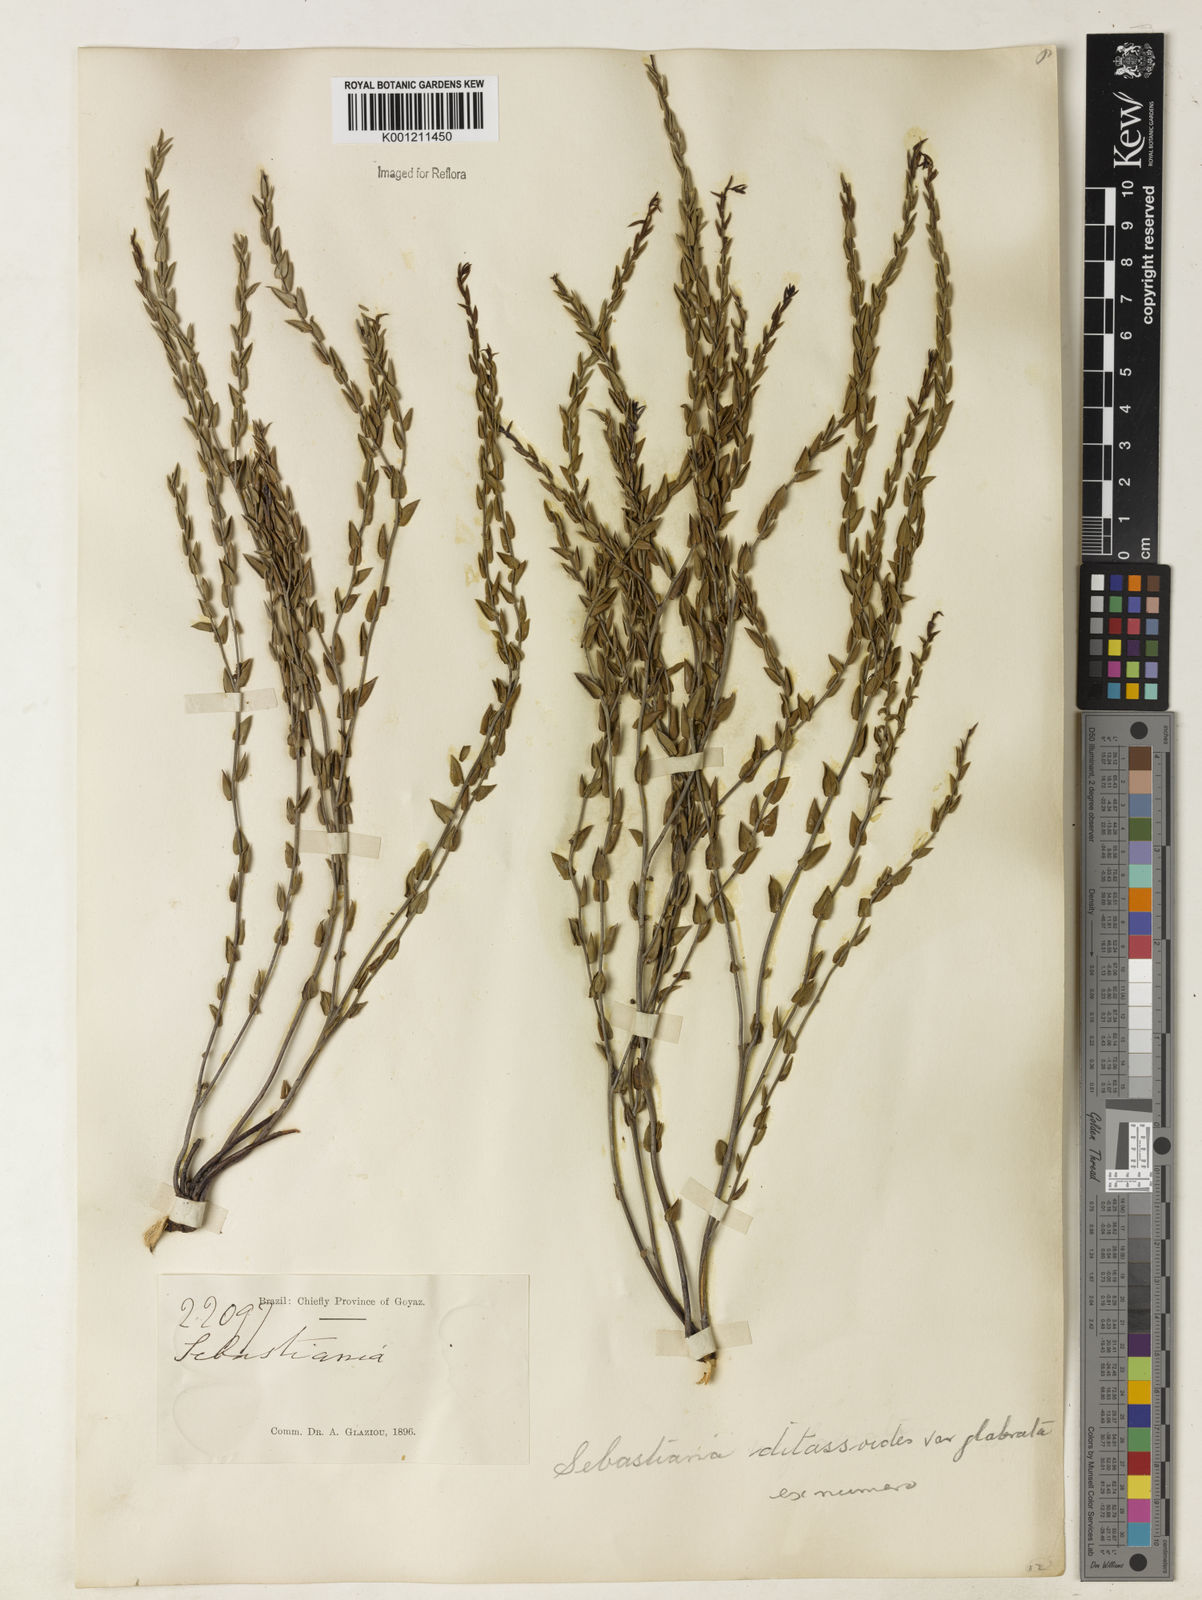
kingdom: Plantae
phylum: Tracheophyta
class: Magnoliopsida
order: Malpighiales
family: Euphorbiaceae
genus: Microstachys
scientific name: Microstachys ditassoides
